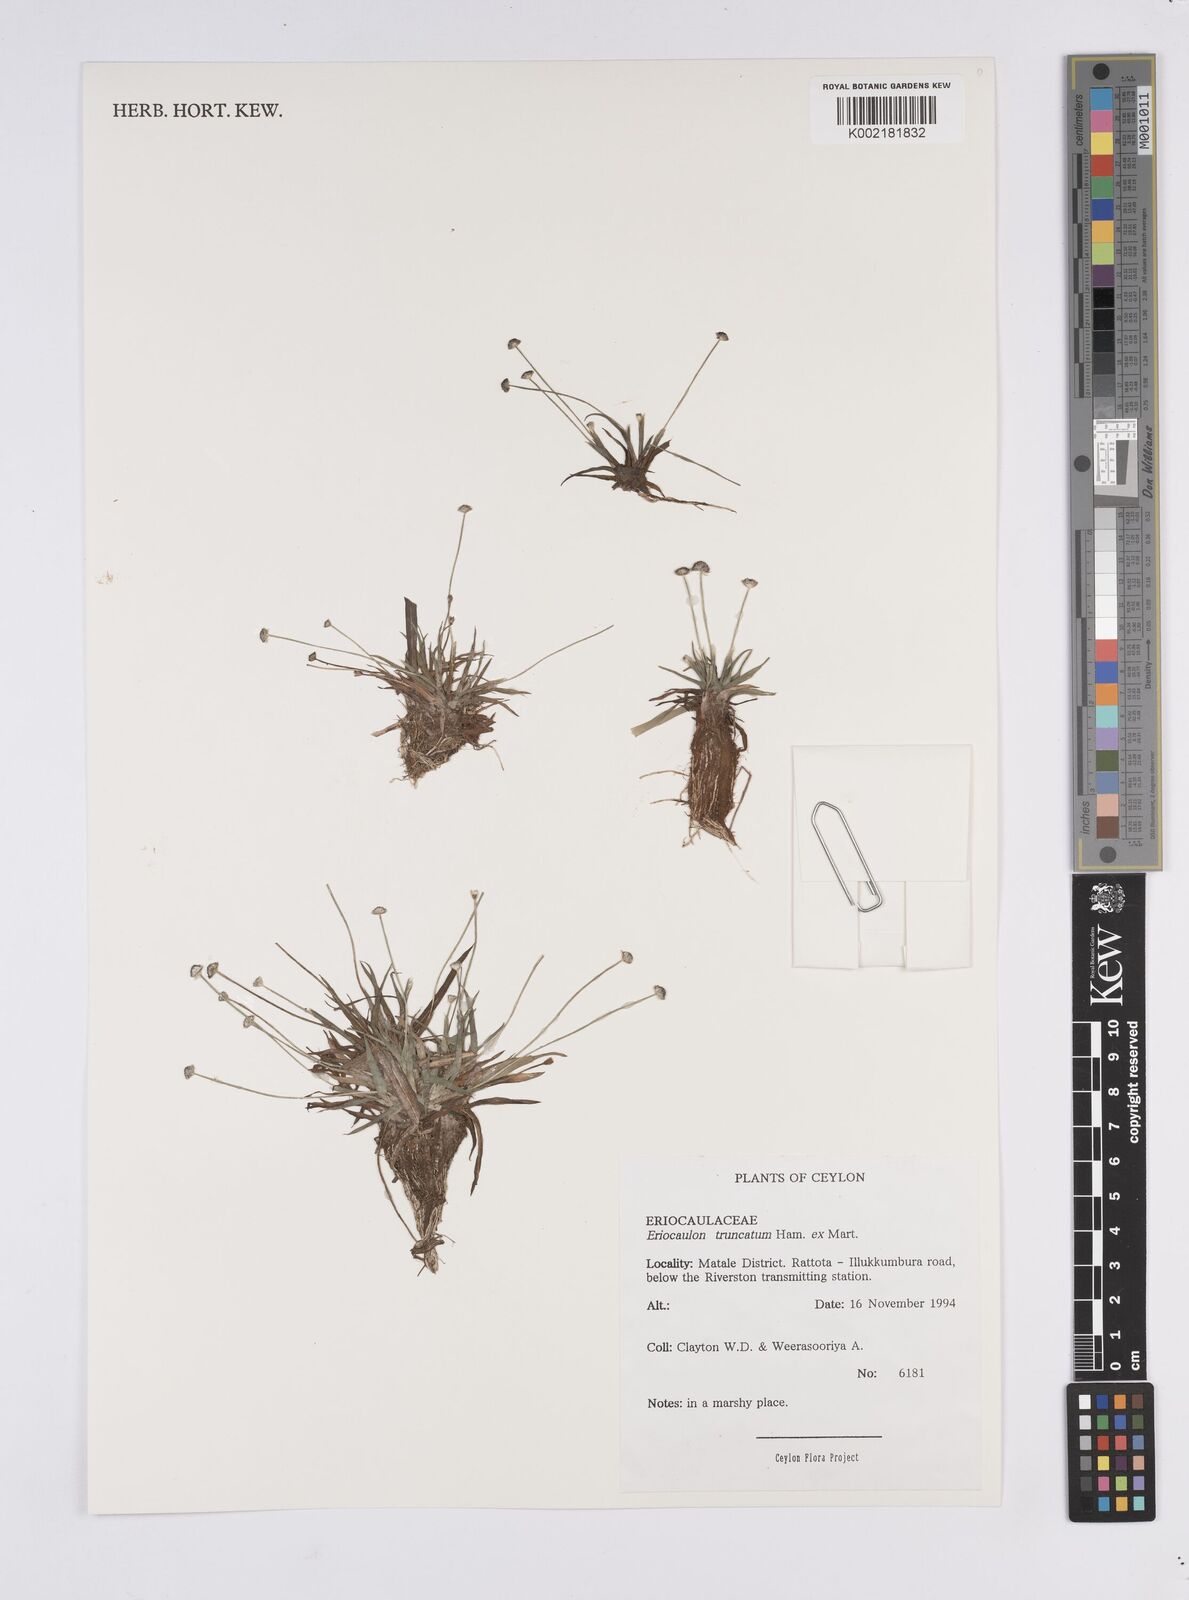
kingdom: Plantae
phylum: Tracheophyta
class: Liliopsida
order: Poales
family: Eriocaulaceae
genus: Eriocaulon
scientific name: Eriocaulon truncatum
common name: Short pipe-wort
